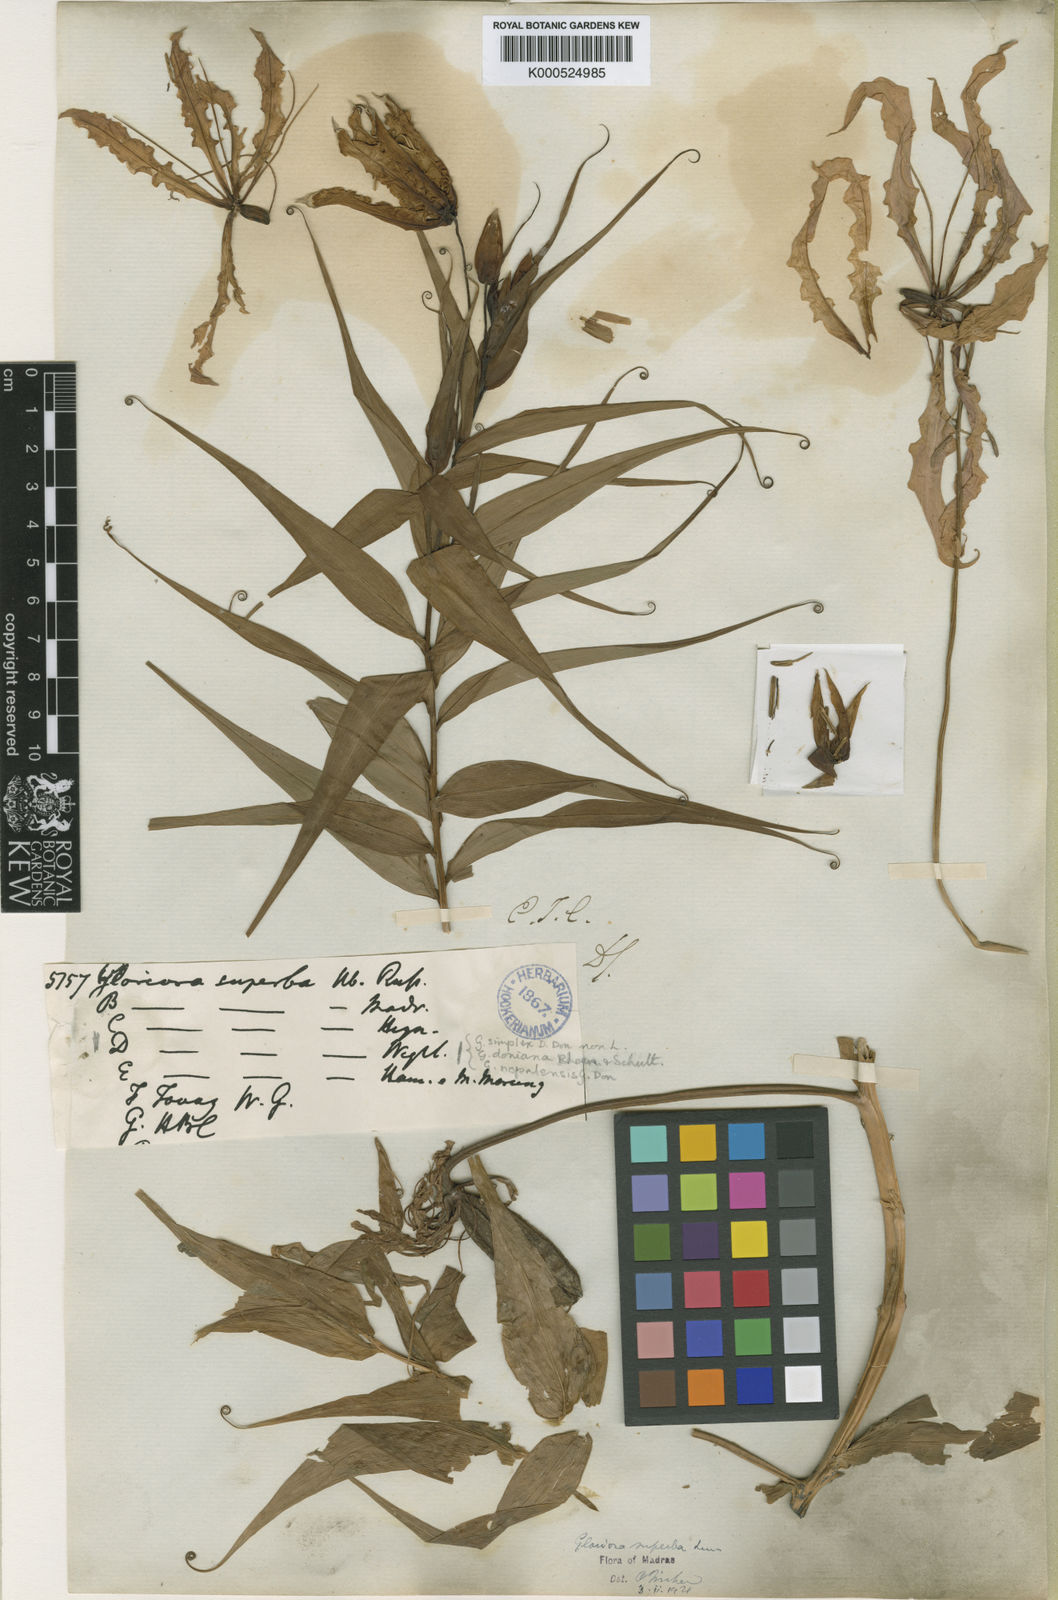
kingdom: Plantae
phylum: Tracheophyta
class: Liliopsida
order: Liliales
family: Colchicaceae
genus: Gloriosa
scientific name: Gloriosa superba
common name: Flame lily
